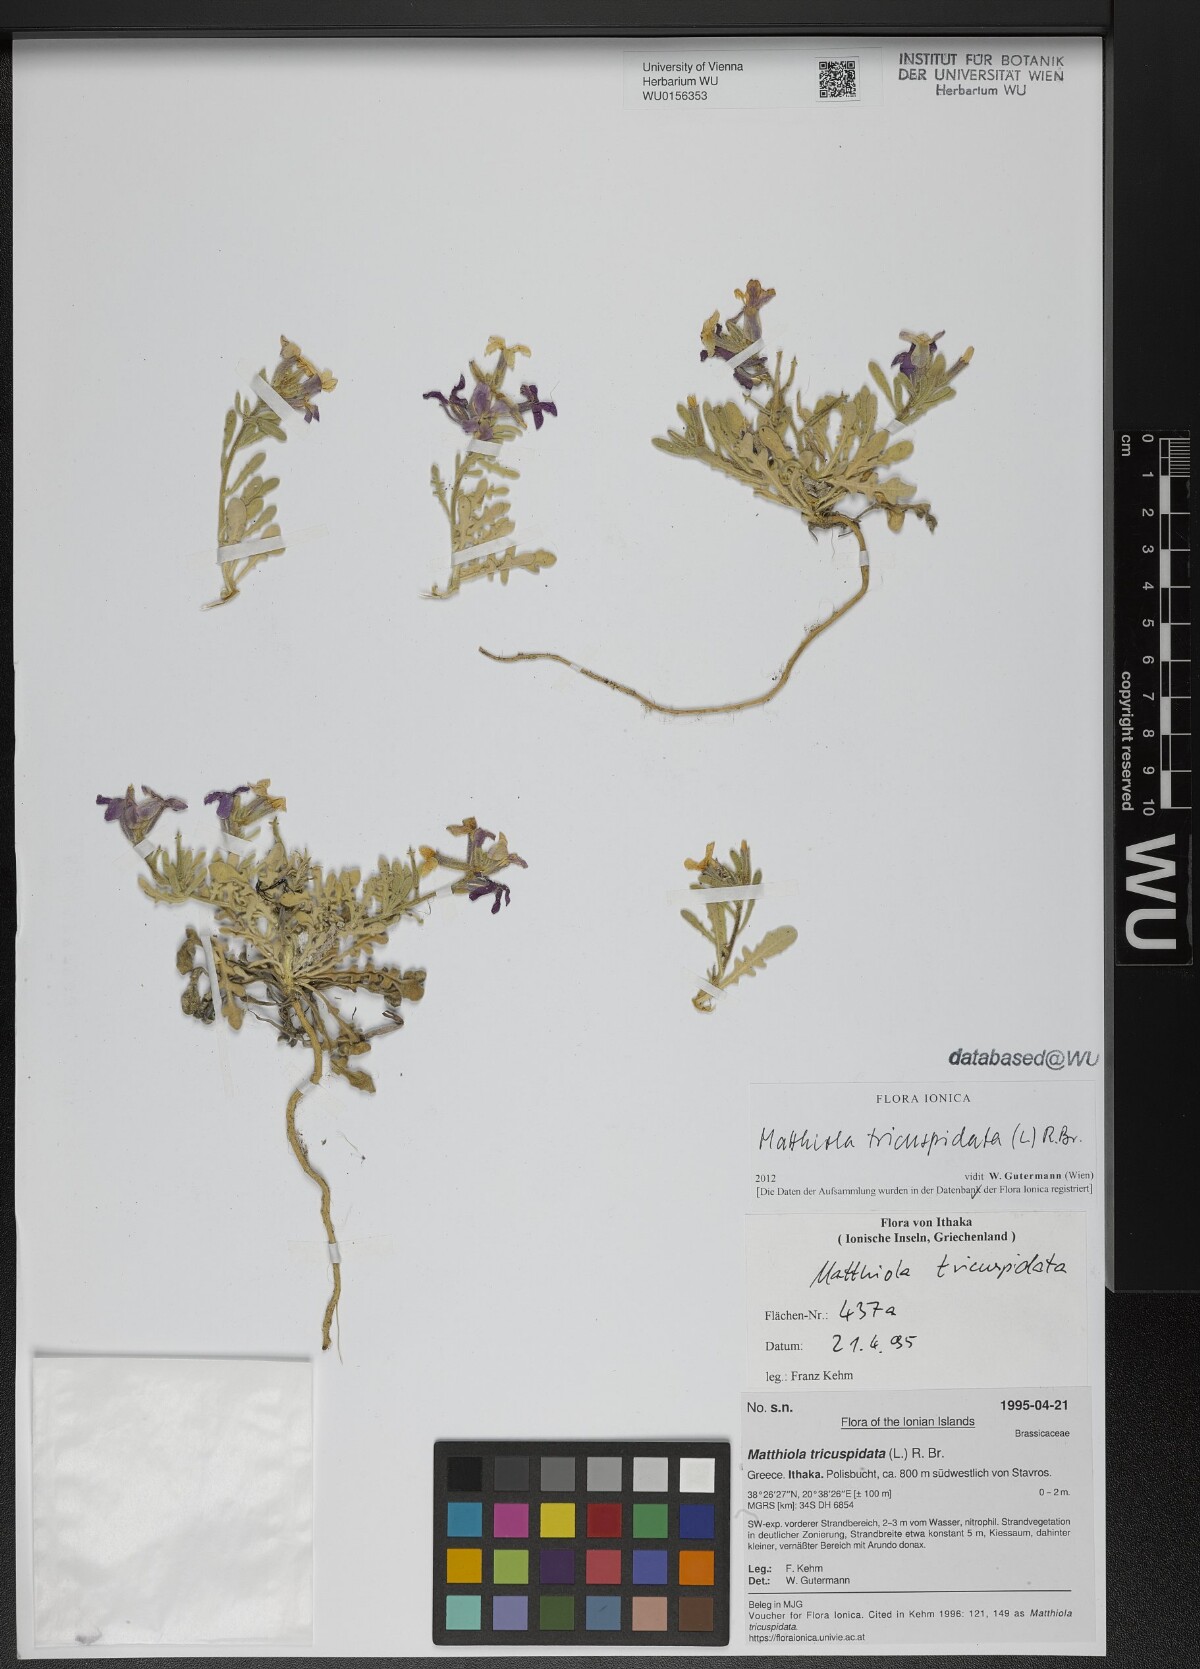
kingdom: Plantae
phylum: Tracheophyta
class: Magnoliopsida
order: Brassicales
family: Brassicaceae
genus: Matthiola
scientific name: Matthiola tricuspidata
